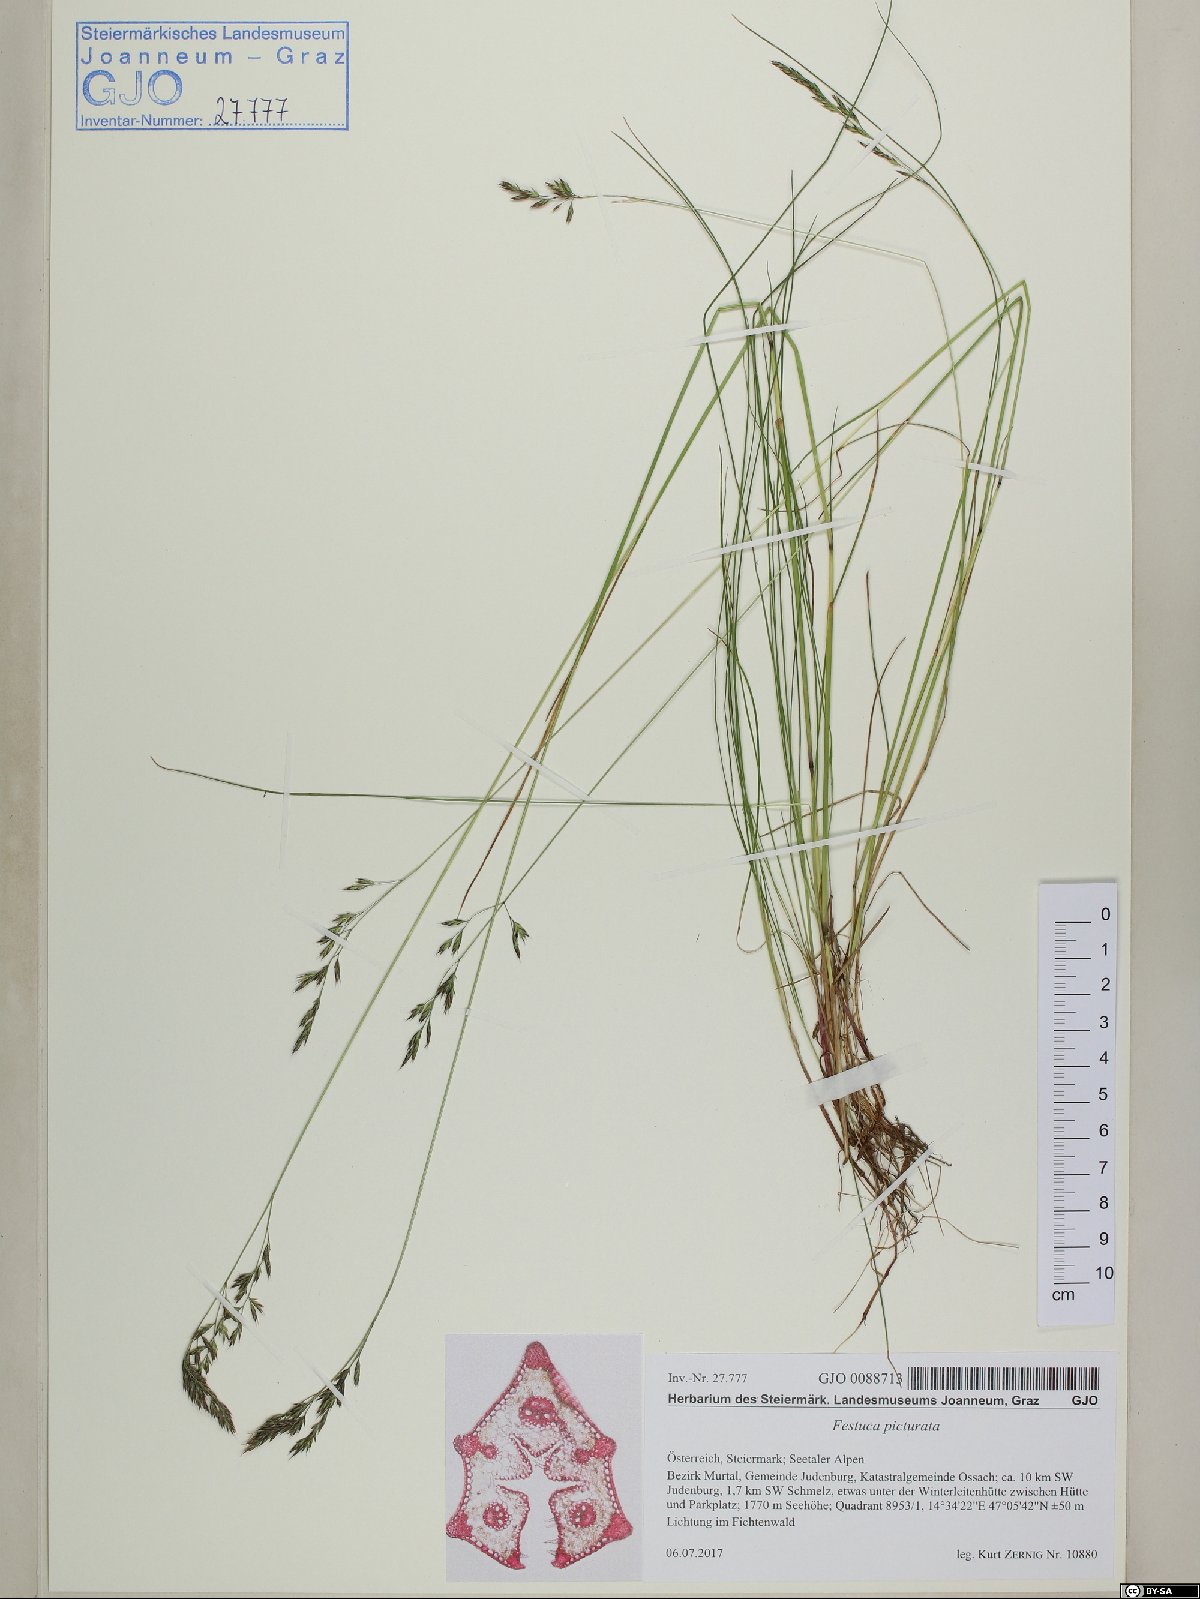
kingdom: Plantae
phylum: Tracheophyta
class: Liliopsida
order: Poales
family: Poaceae
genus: Festuca
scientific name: Festuca picturata
